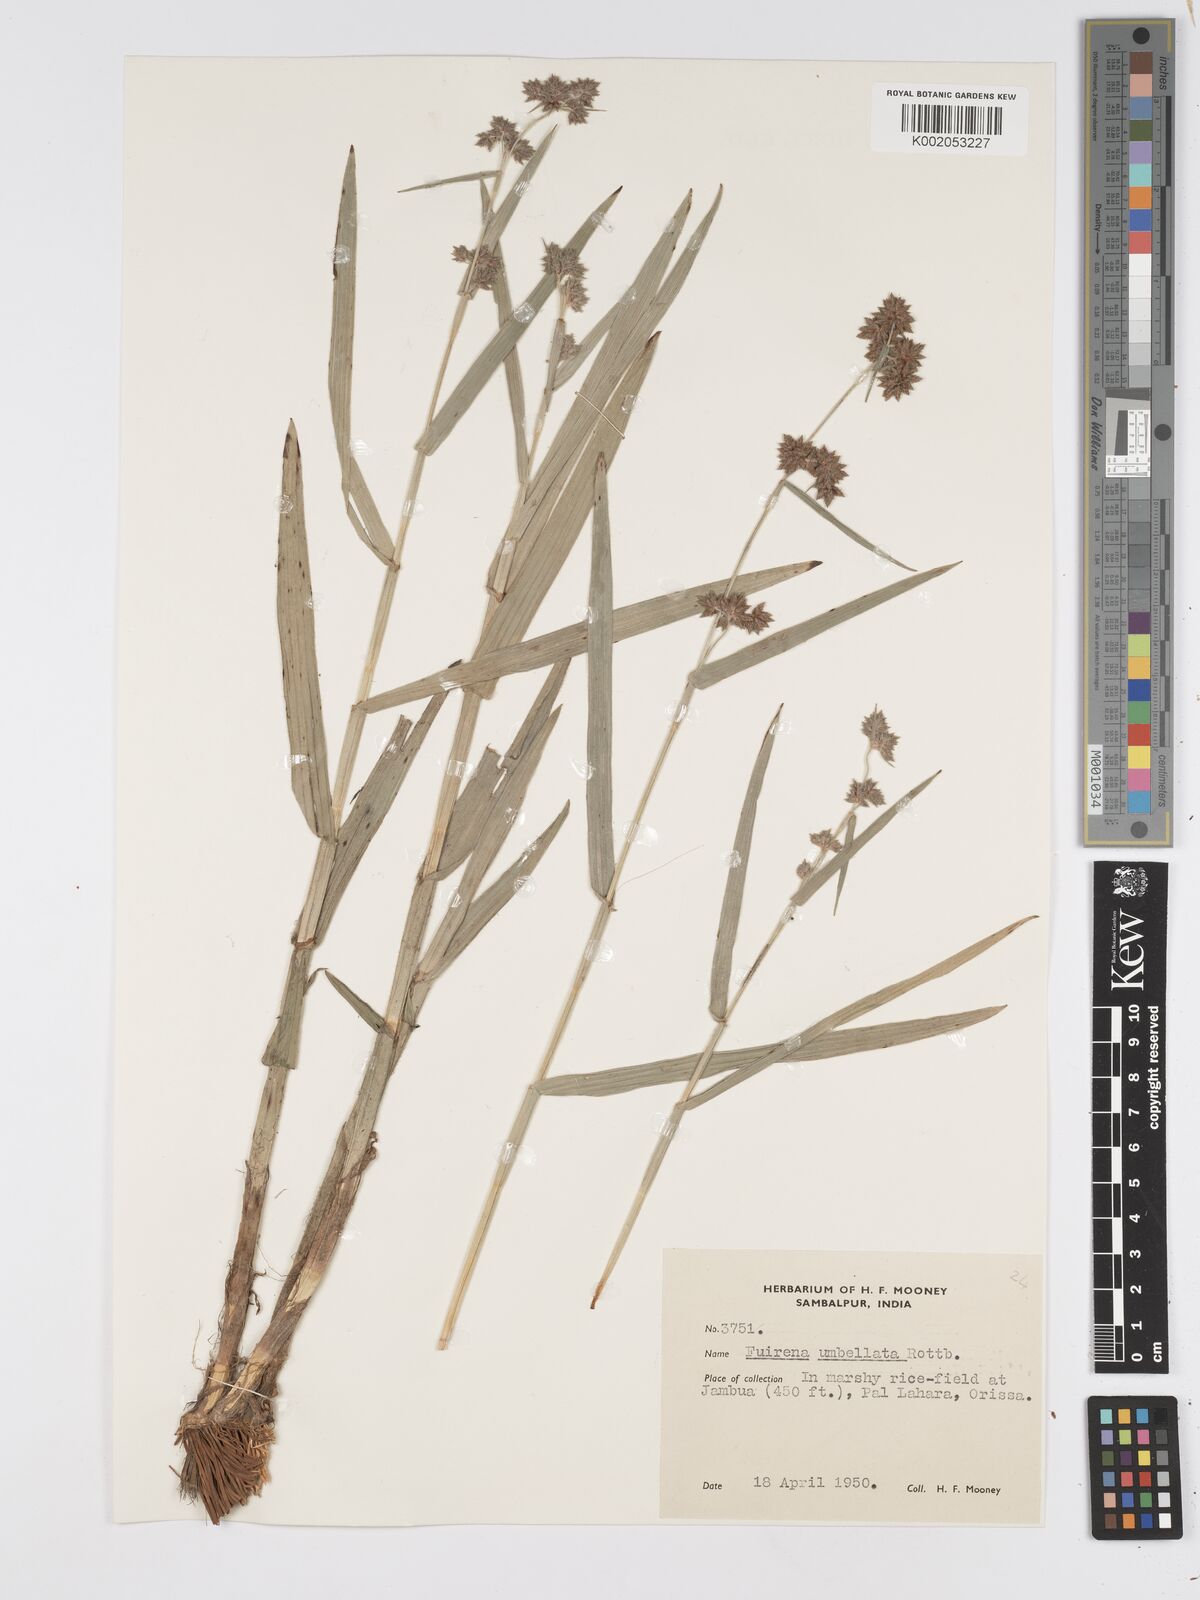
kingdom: Plantae
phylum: Tracheophyta
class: Liliopsida
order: Poales
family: Cyperaceae
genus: Fuirena
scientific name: Fuirena umbellata
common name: Yefen
